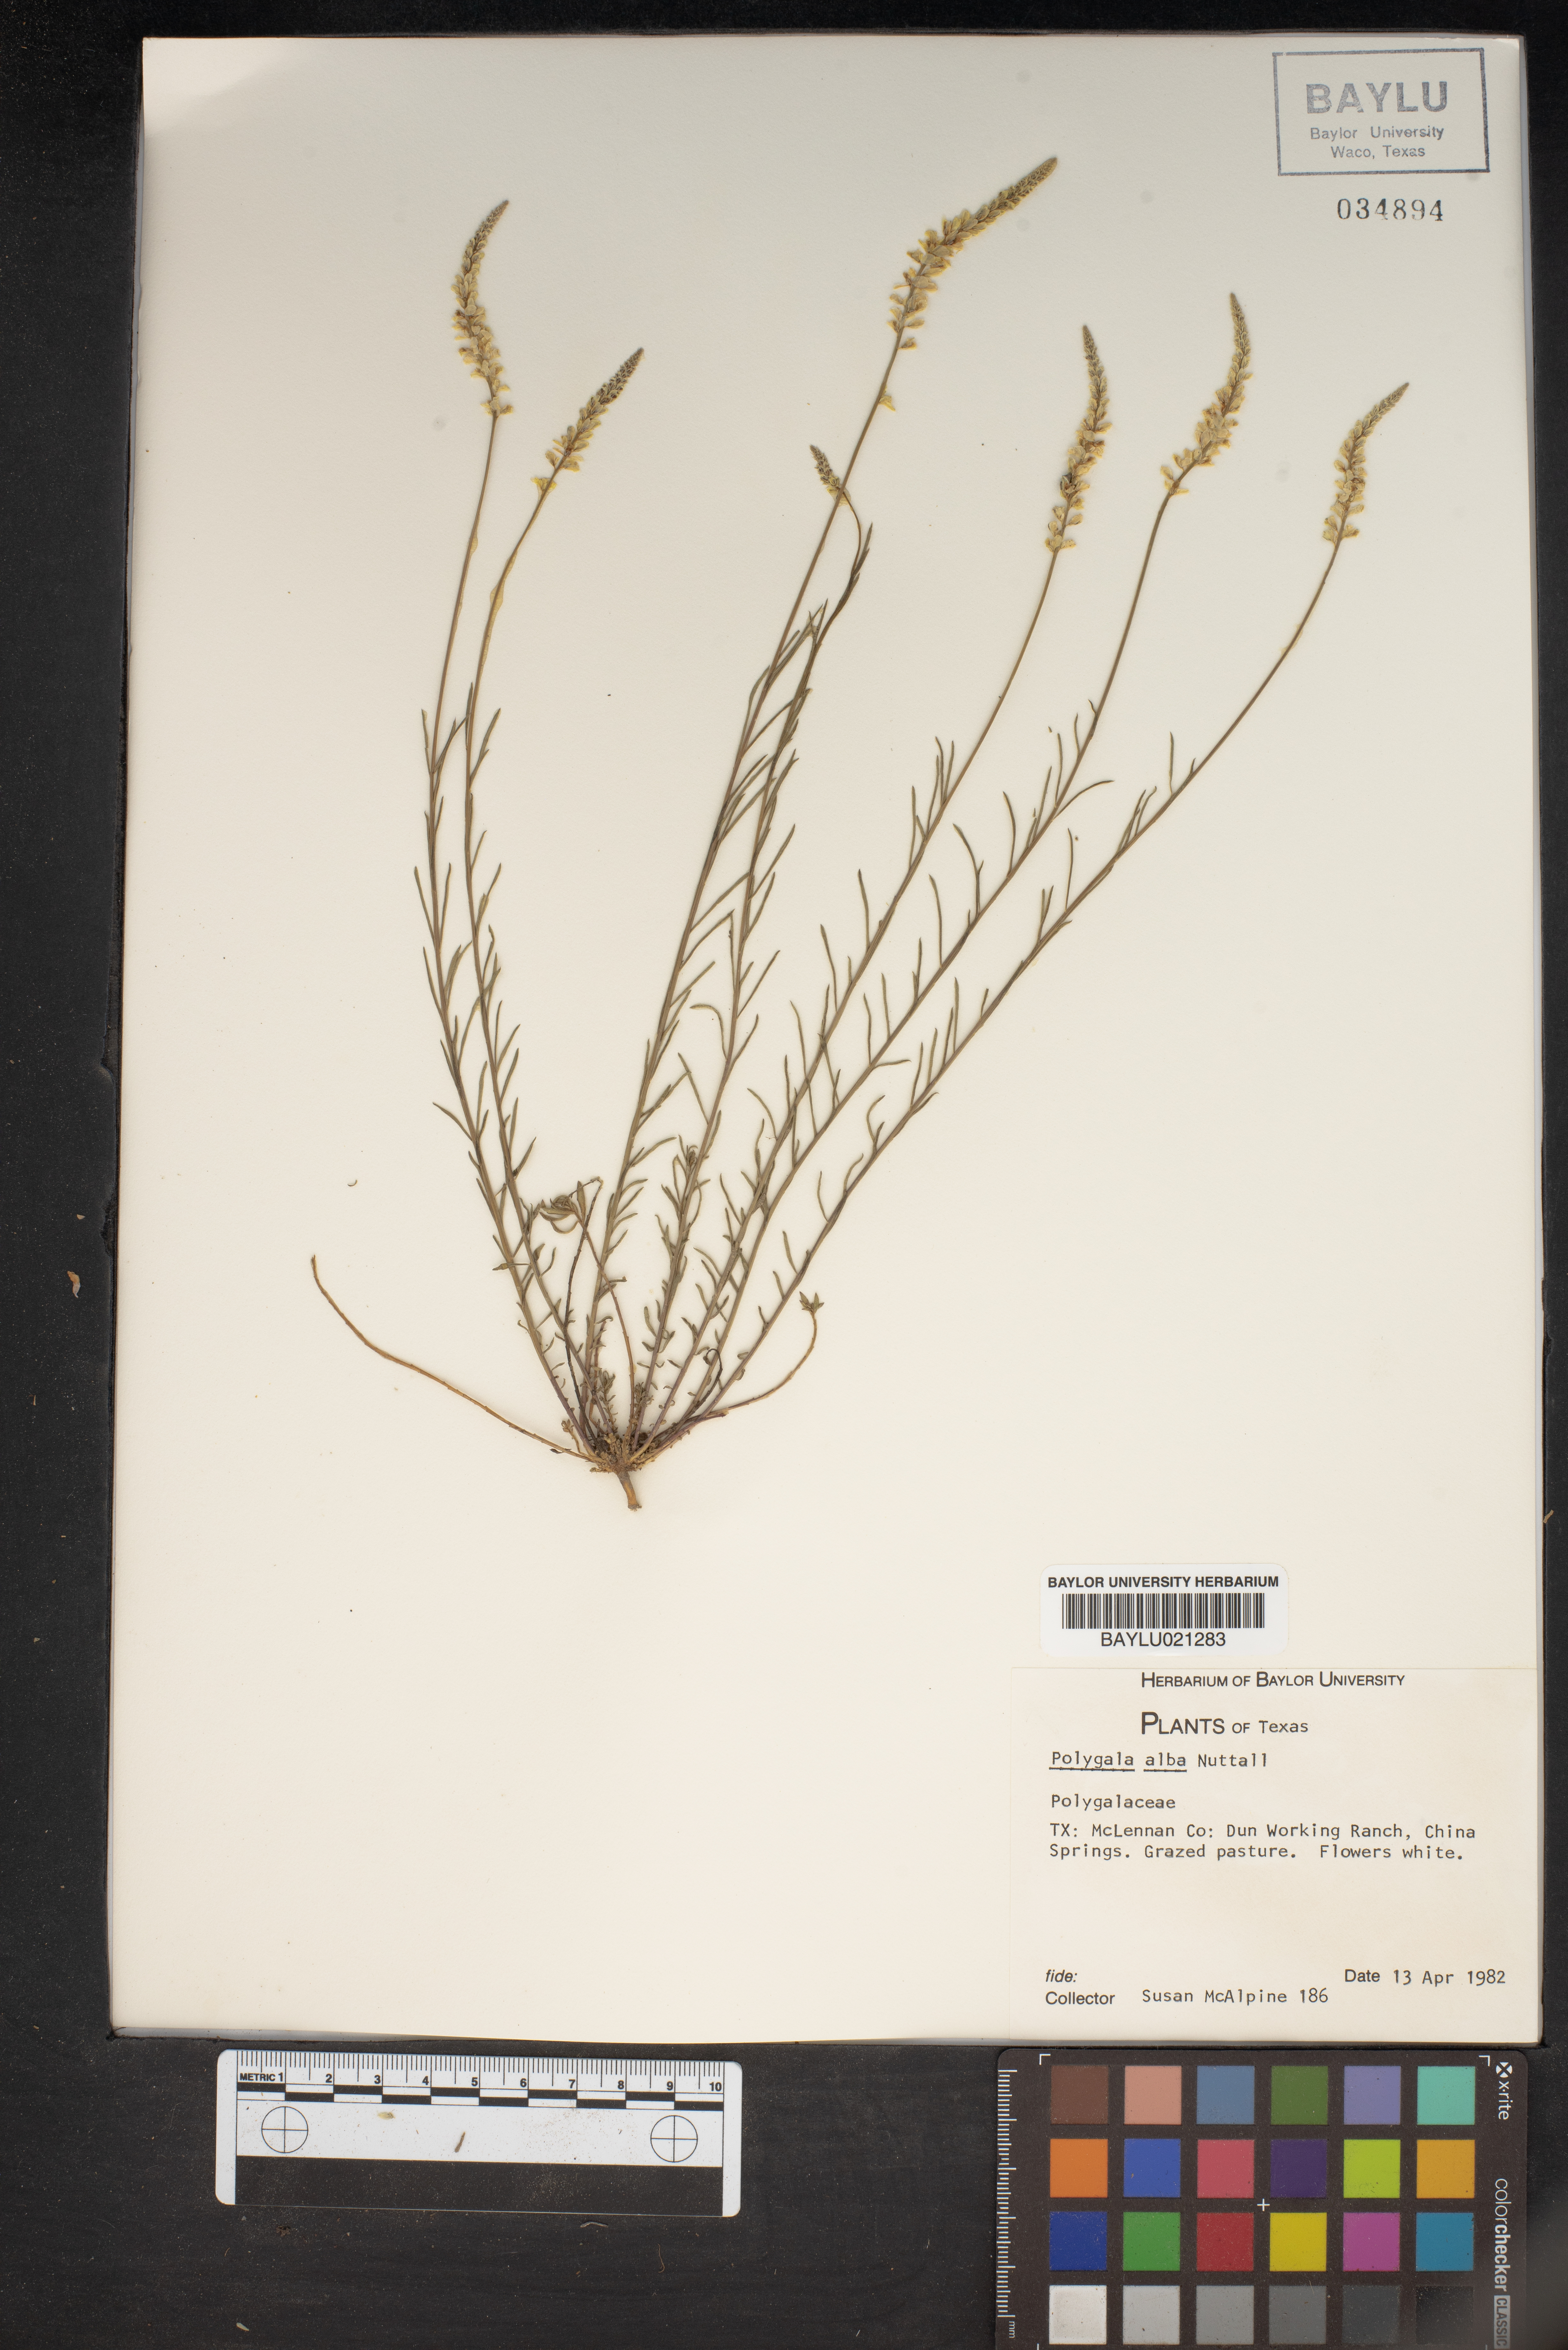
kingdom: Plantae
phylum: Tracheophyta
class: Magnoliopsida
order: Fabales
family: Polygalaceae
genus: Polygala
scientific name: Polygala alba
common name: White milkwort
